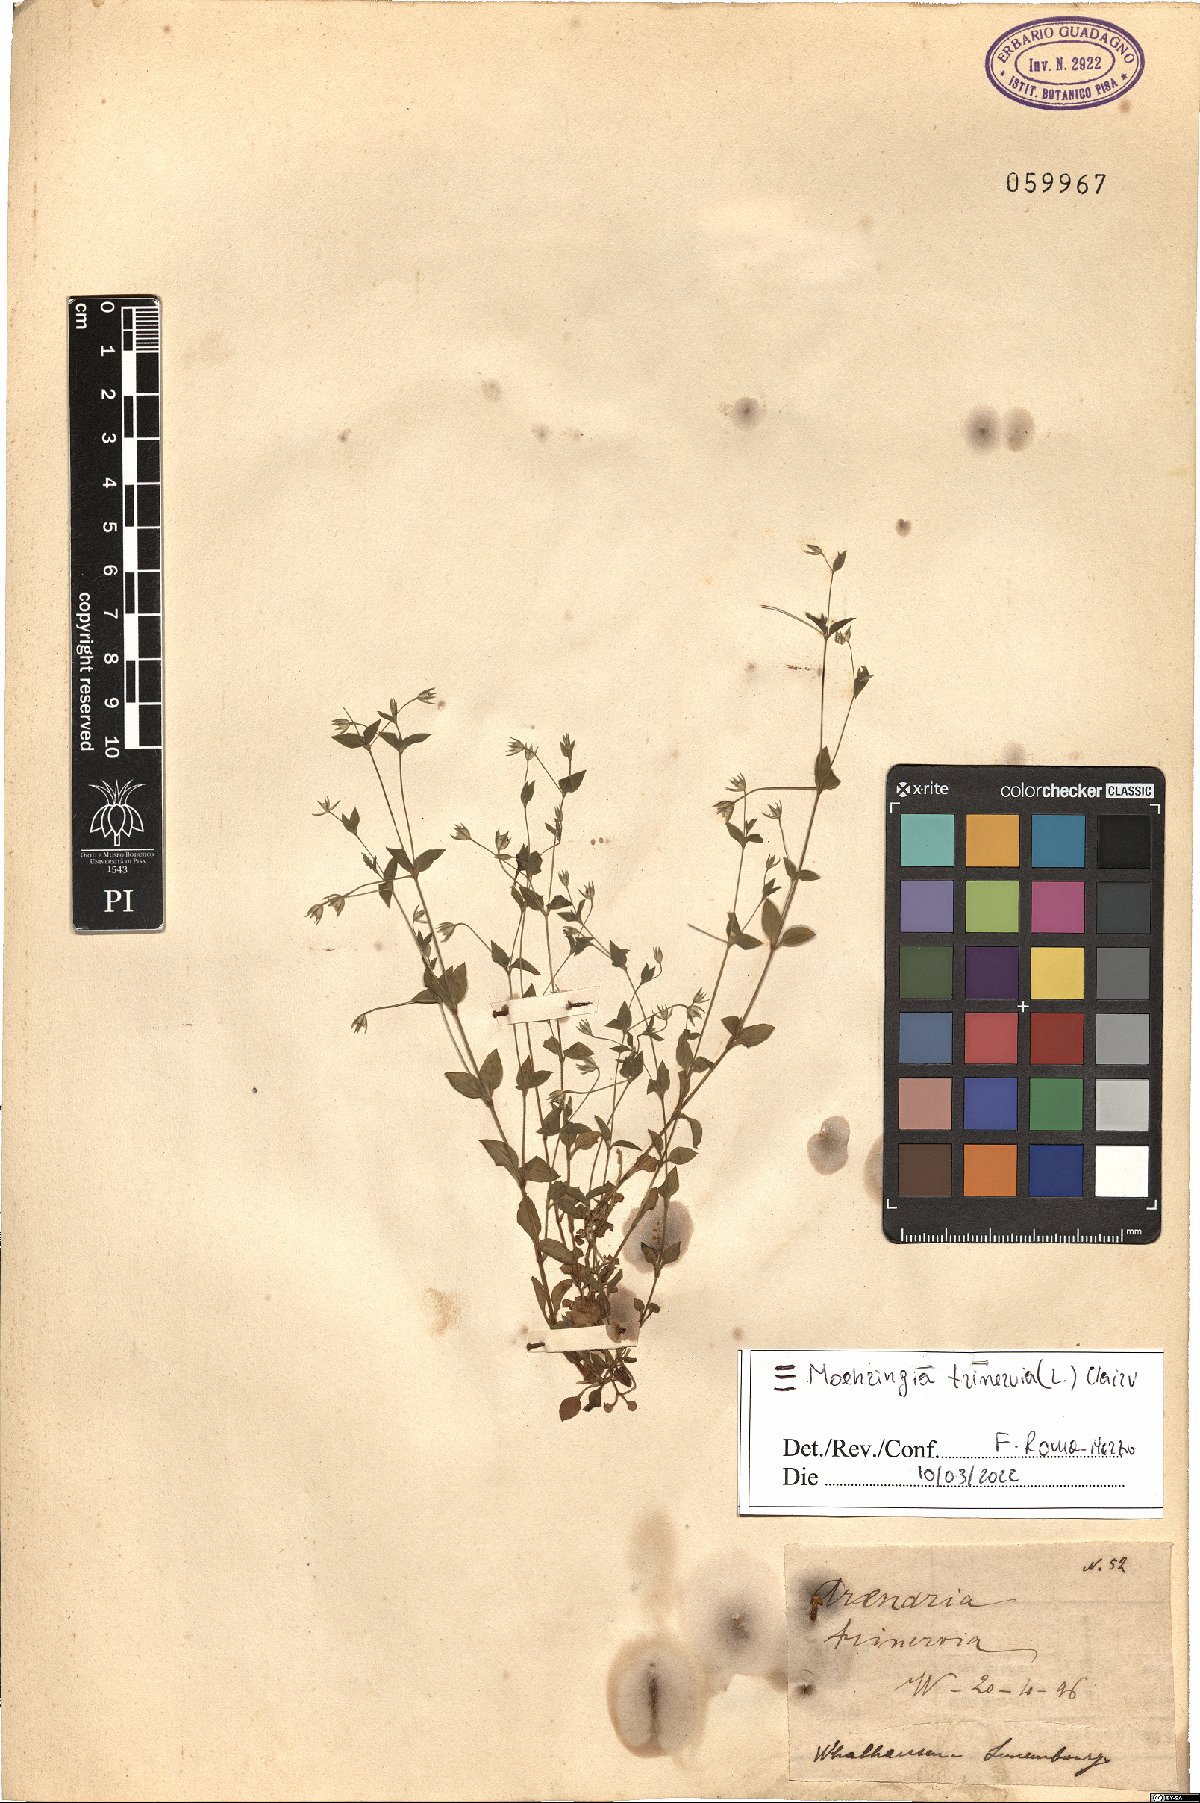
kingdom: Plantae
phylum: Tracheophyta
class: Magnoliopsida
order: Caryophyllales
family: Caryophyllaceae
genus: Moehringia
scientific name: Moehringia trinervia
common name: Three-nerved sandwort
